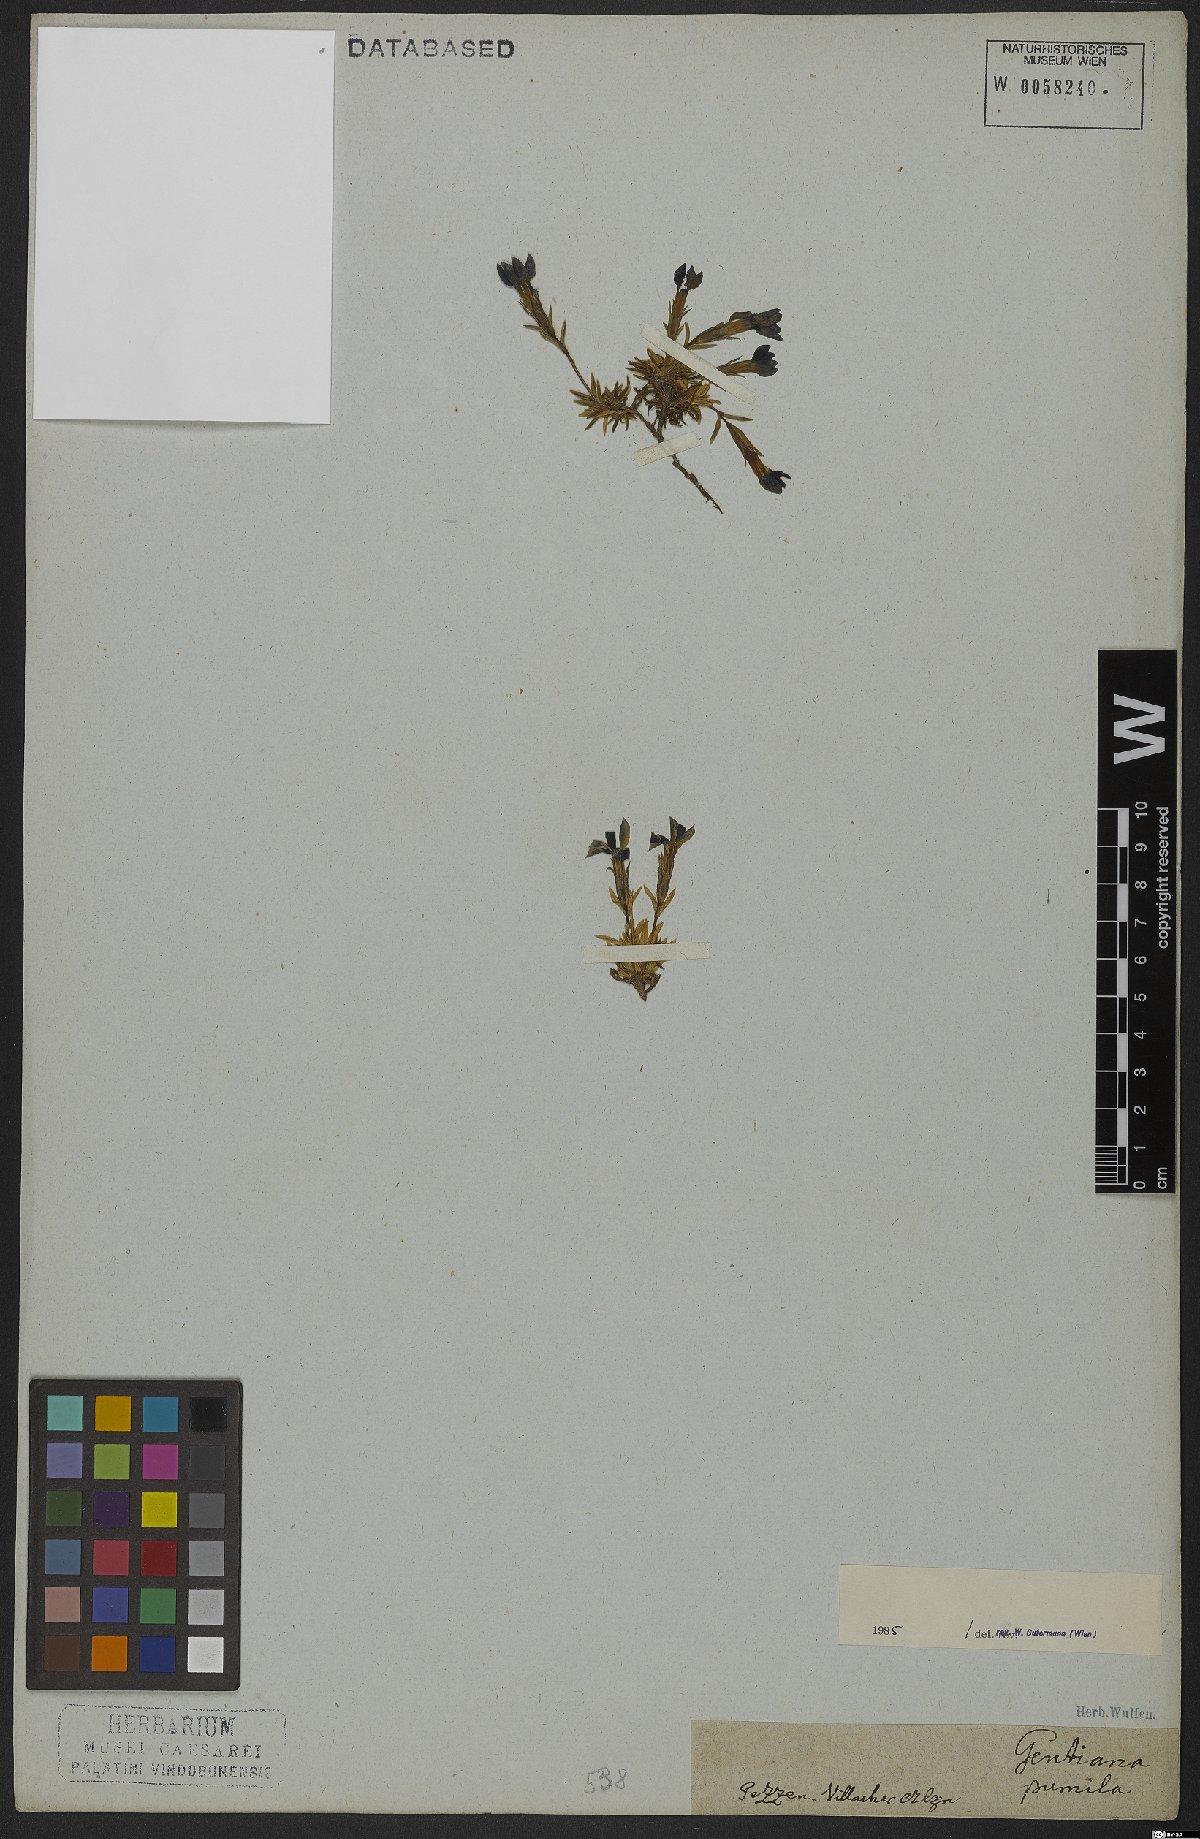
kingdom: Plantae
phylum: Tracheophyta
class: Magnoliopsida
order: Gentianales
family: Gentianaceae
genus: Gentiana
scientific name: Gentiana pumila
